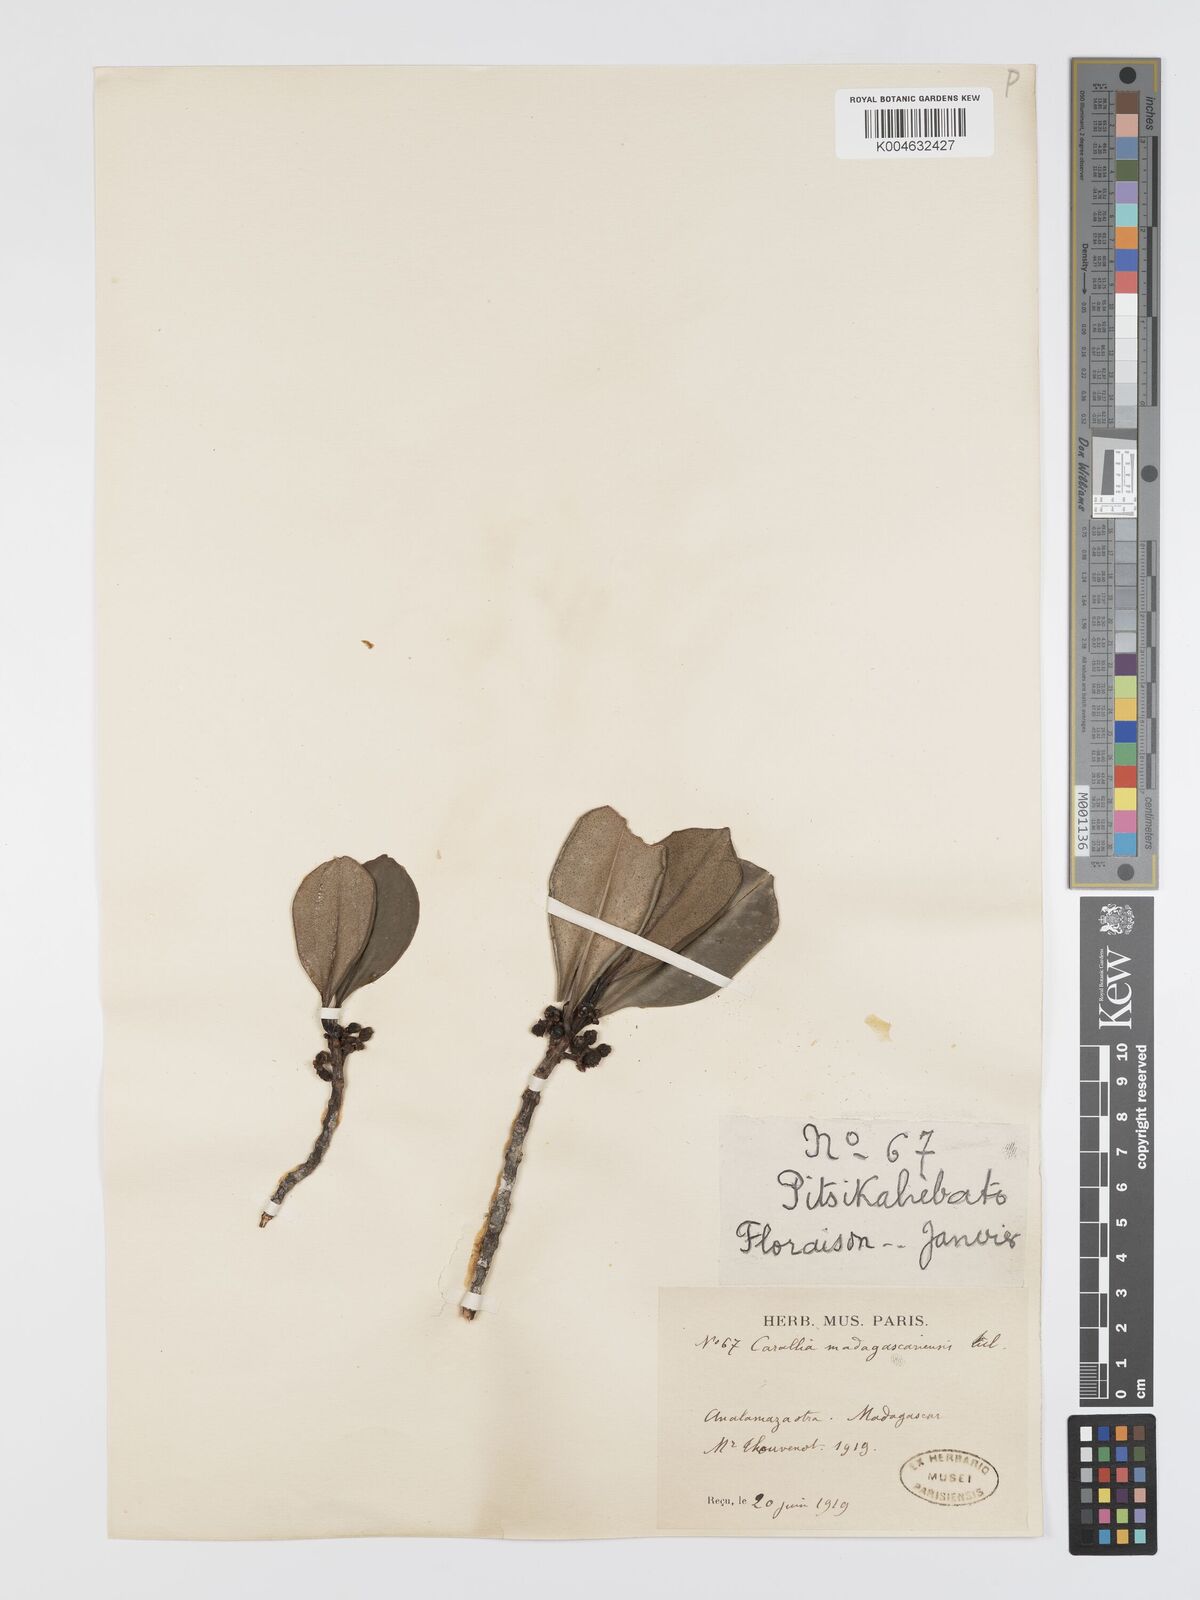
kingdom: Plantae
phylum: Tracheophyta
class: Magnoliopsida
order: Malpighiales
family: Rhizophoraceae
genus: Carallia
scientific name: Carallia brachiata
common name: Carallawood
